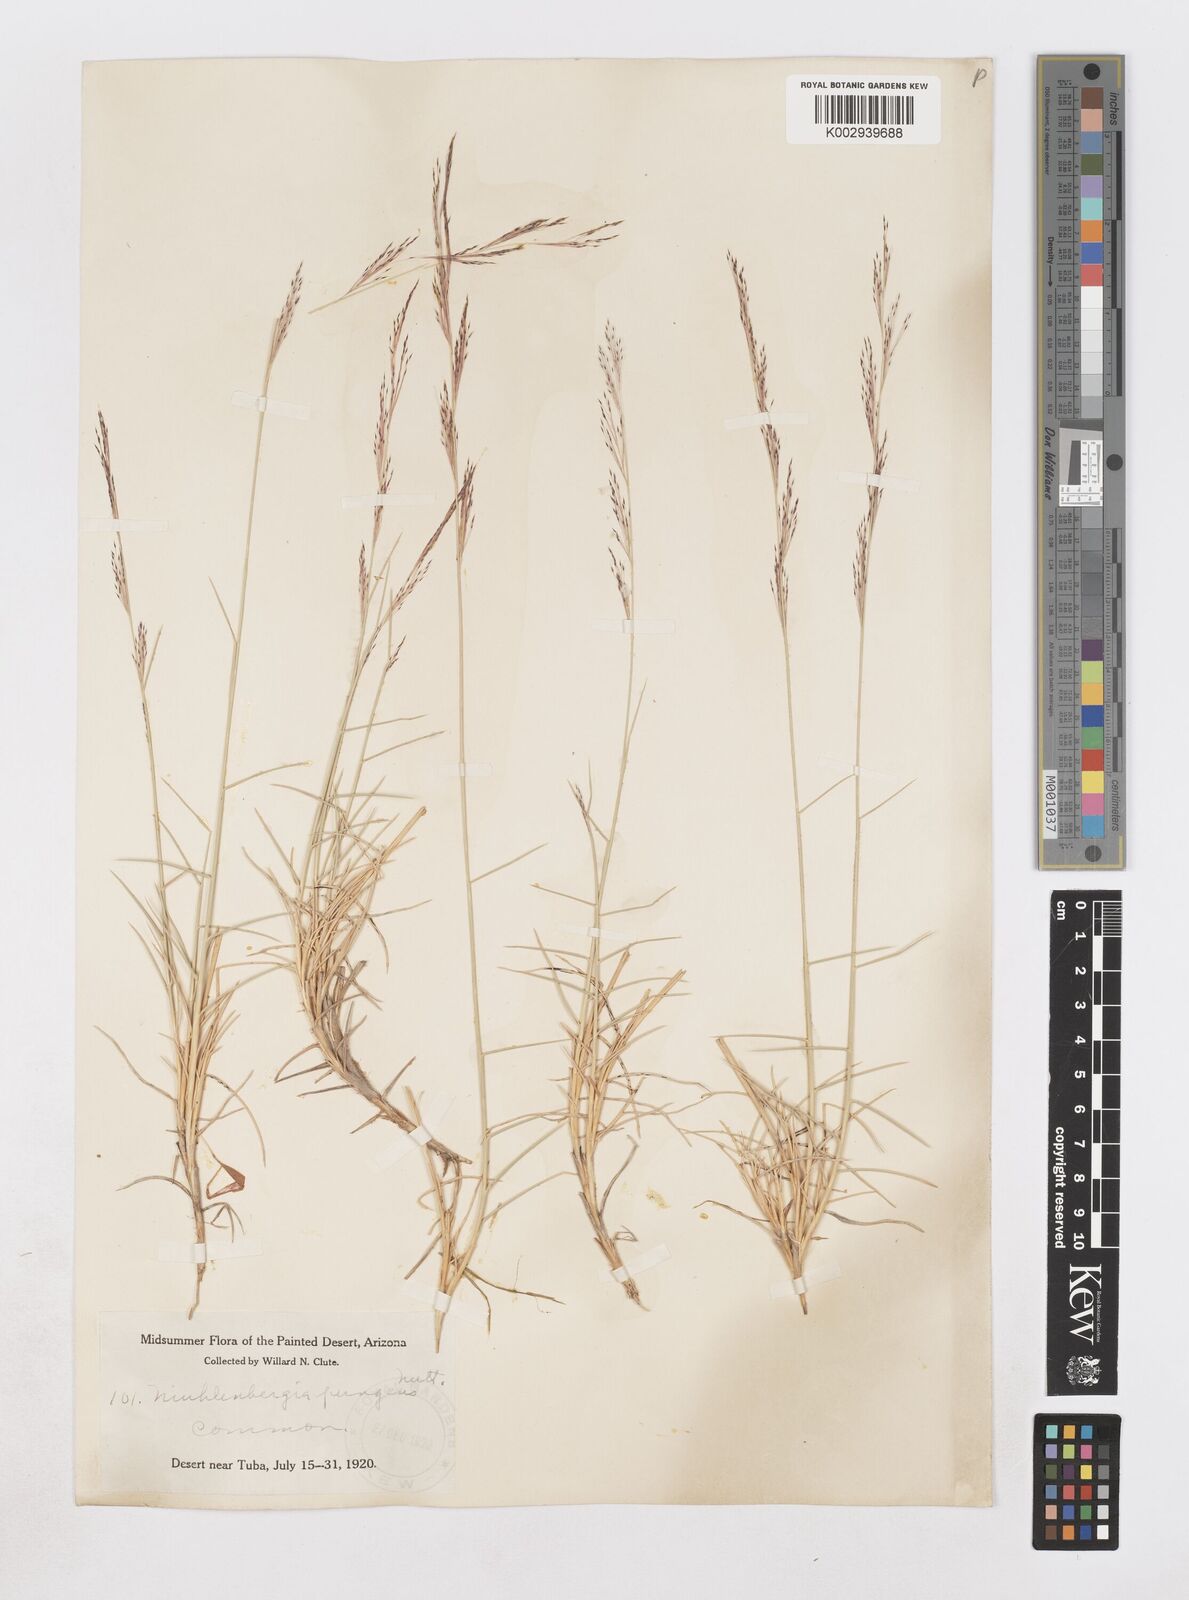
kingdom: Plantae
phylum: Tracheophyta
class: Liliopsida
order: Poales
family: Poaceae
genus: Muhlenbergia
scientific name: Muhlenbergia pungens
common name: Sandhill muhly
